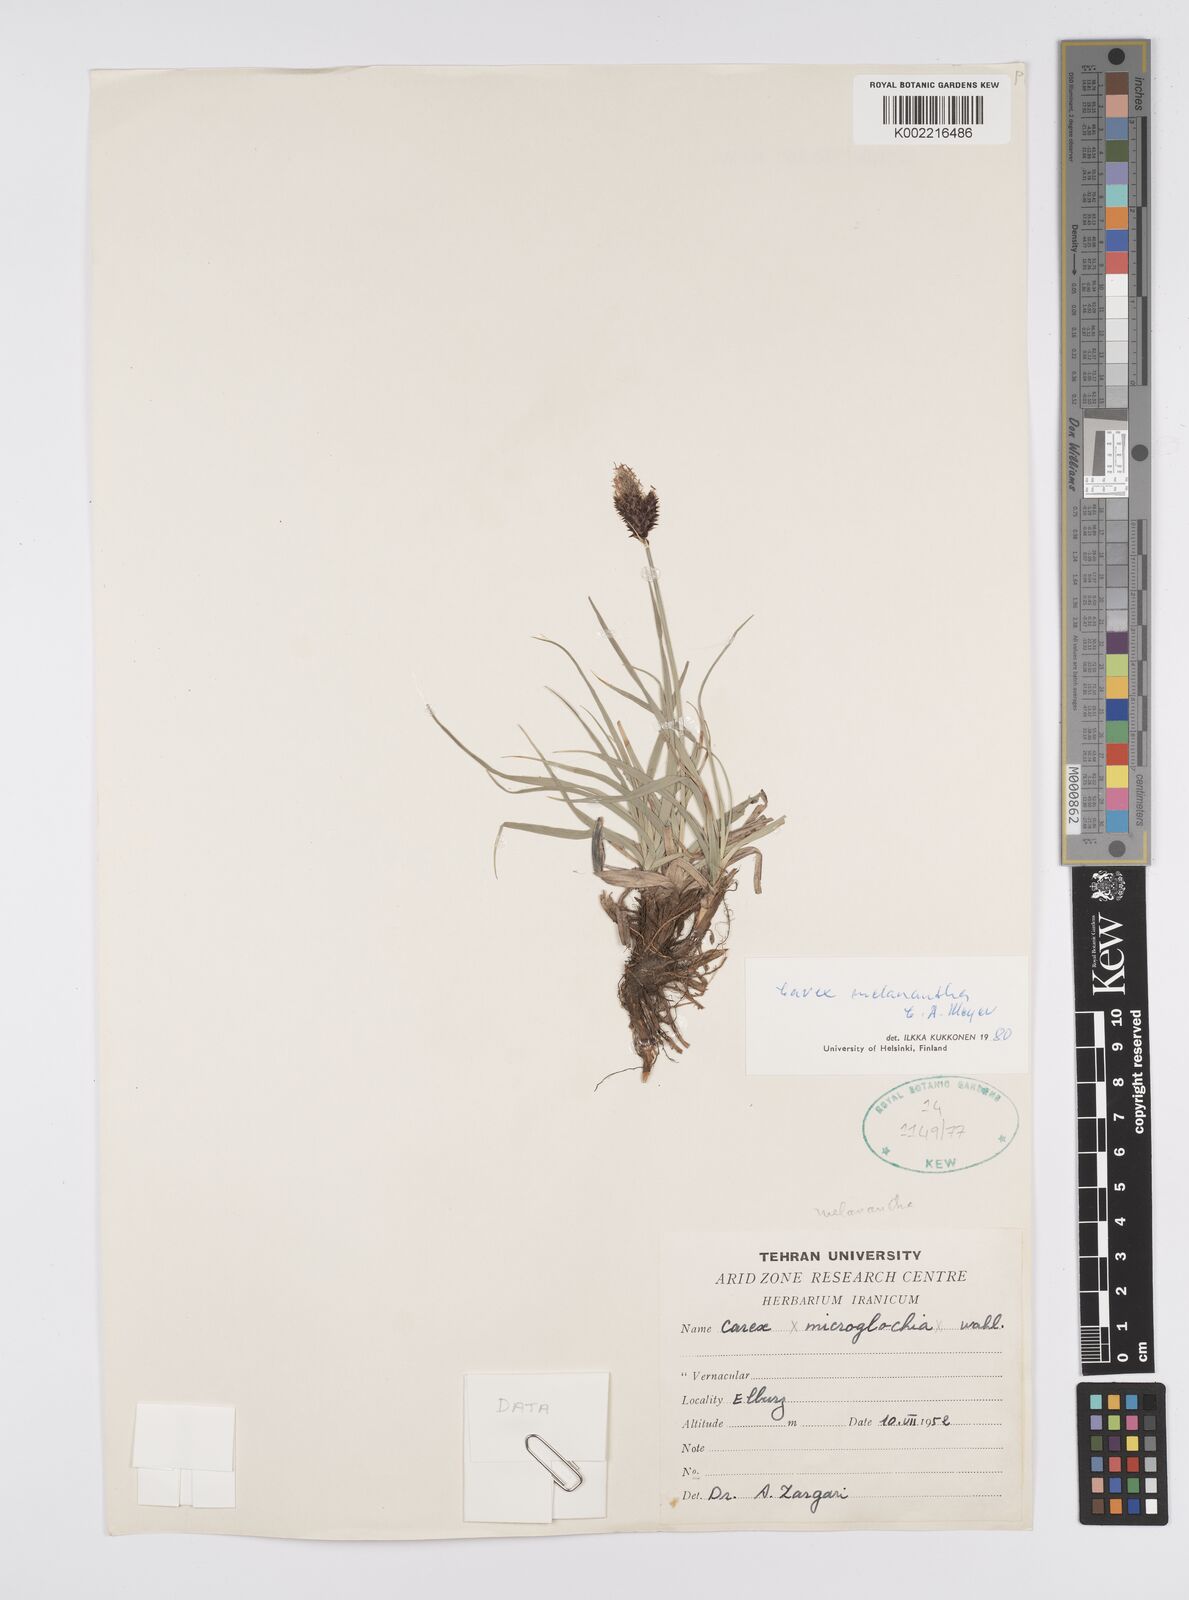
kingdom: Plantae
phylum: Tracheophyta
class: Liliopsida
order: Poales
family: Cyperaceae
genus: Carex
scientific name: Carex melanantha
